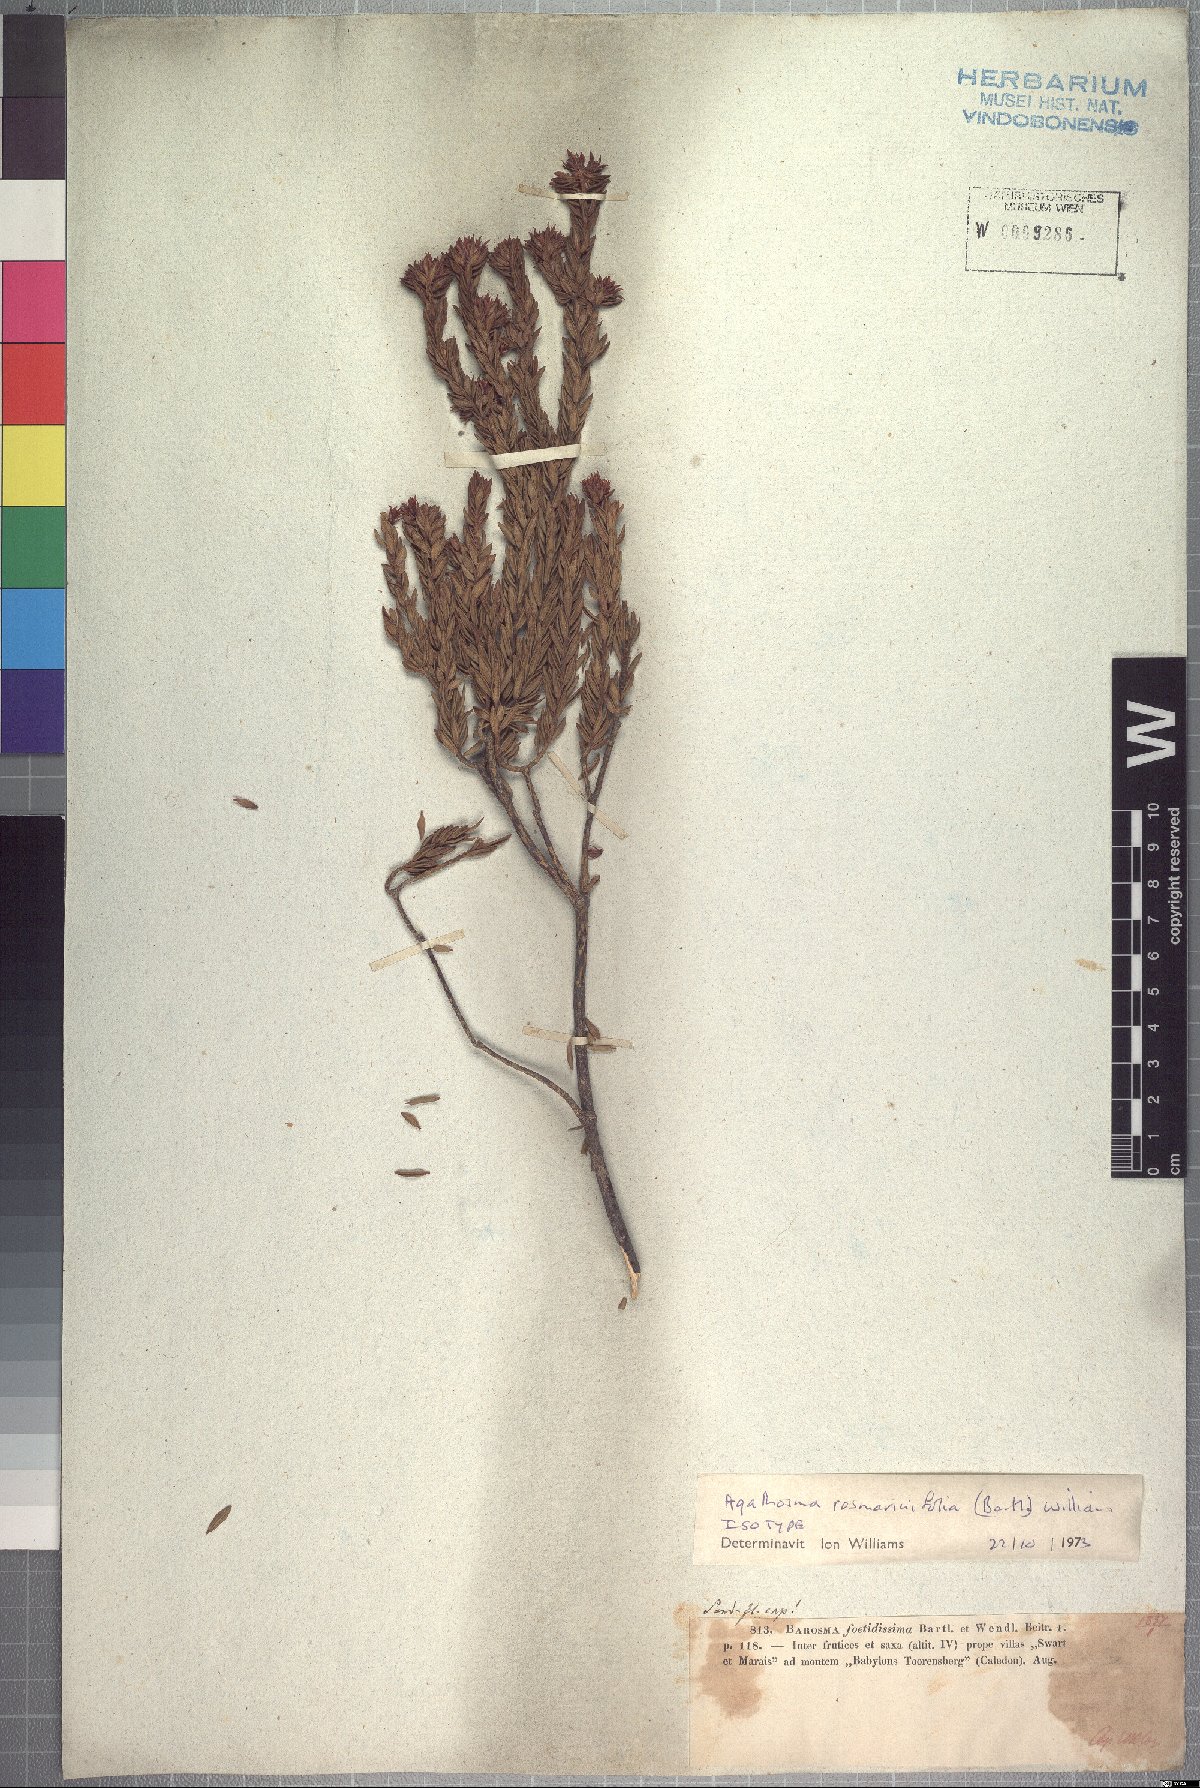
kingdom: Plantae
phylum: Tracheophyta
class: Magnoliopsida
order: Sapindales
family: Rutaceae
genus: Agathosma
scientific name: Agathosma rosmarinifolia
